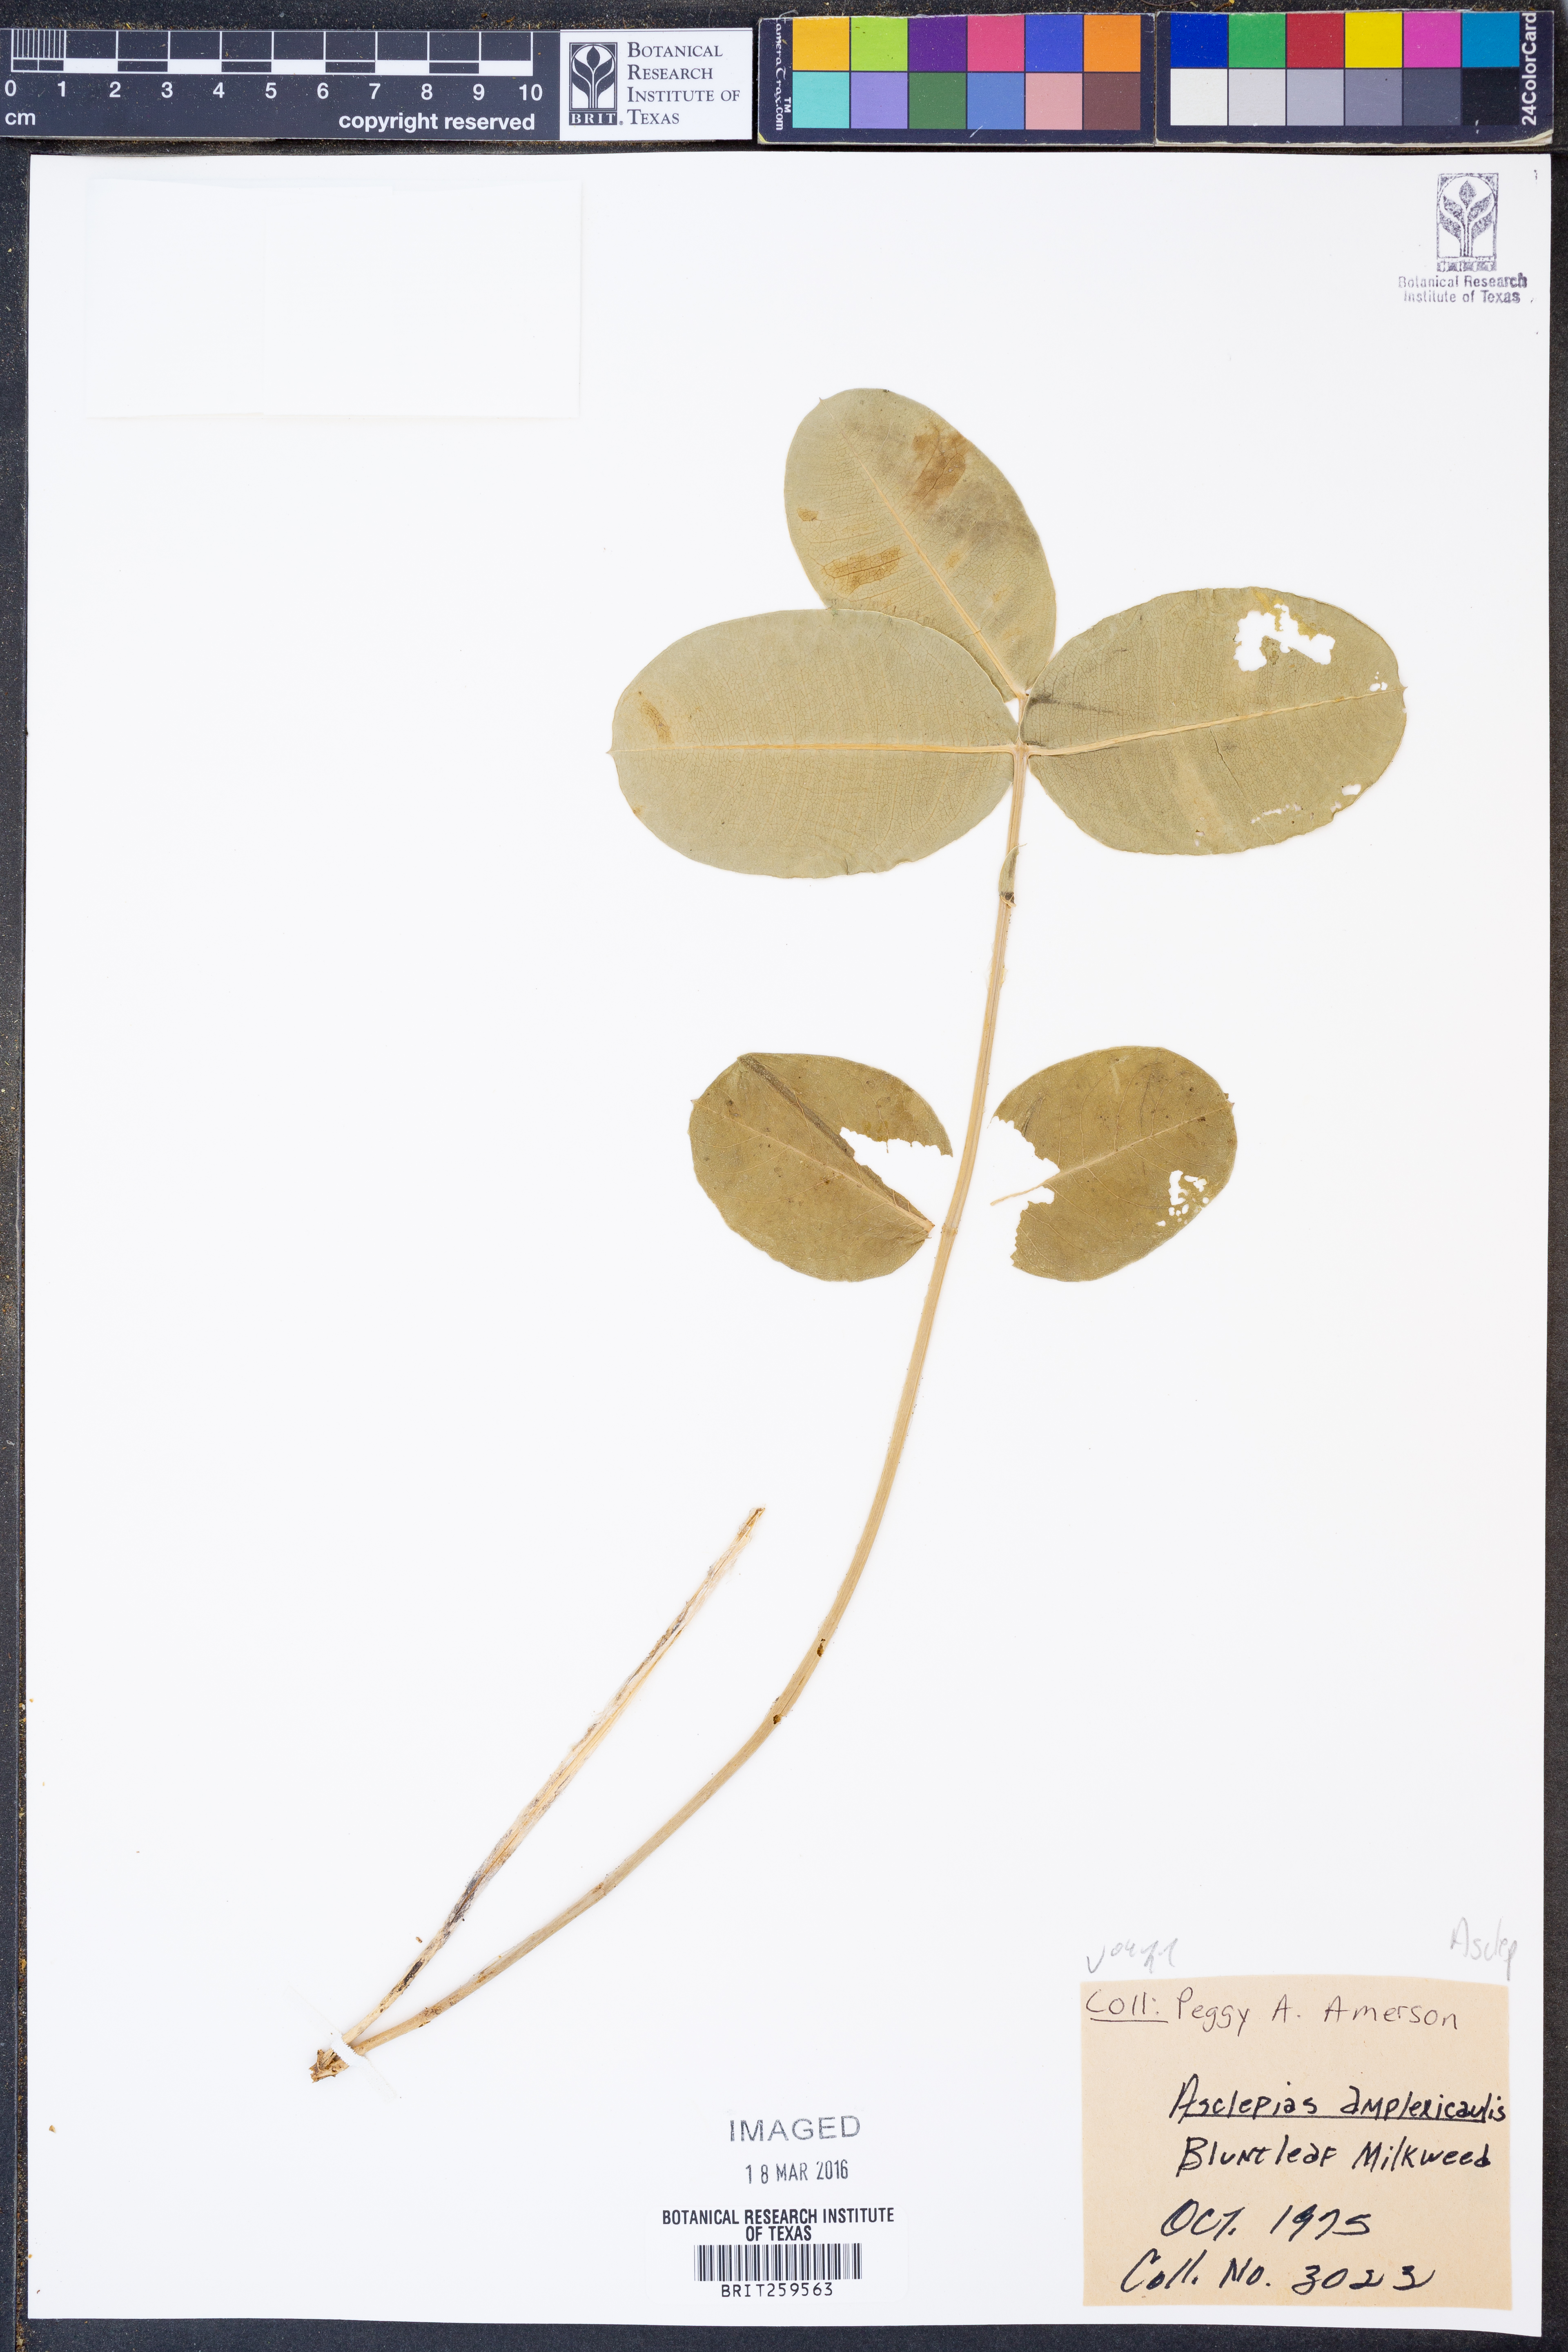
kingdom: Plantae
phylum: Tracheophyta
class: Magnoliopsida
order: Gentianales
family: Apocynaceae
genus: Asclepias
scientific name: Asclepias amplexicaulis
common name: Blunt-leaf milkweed
